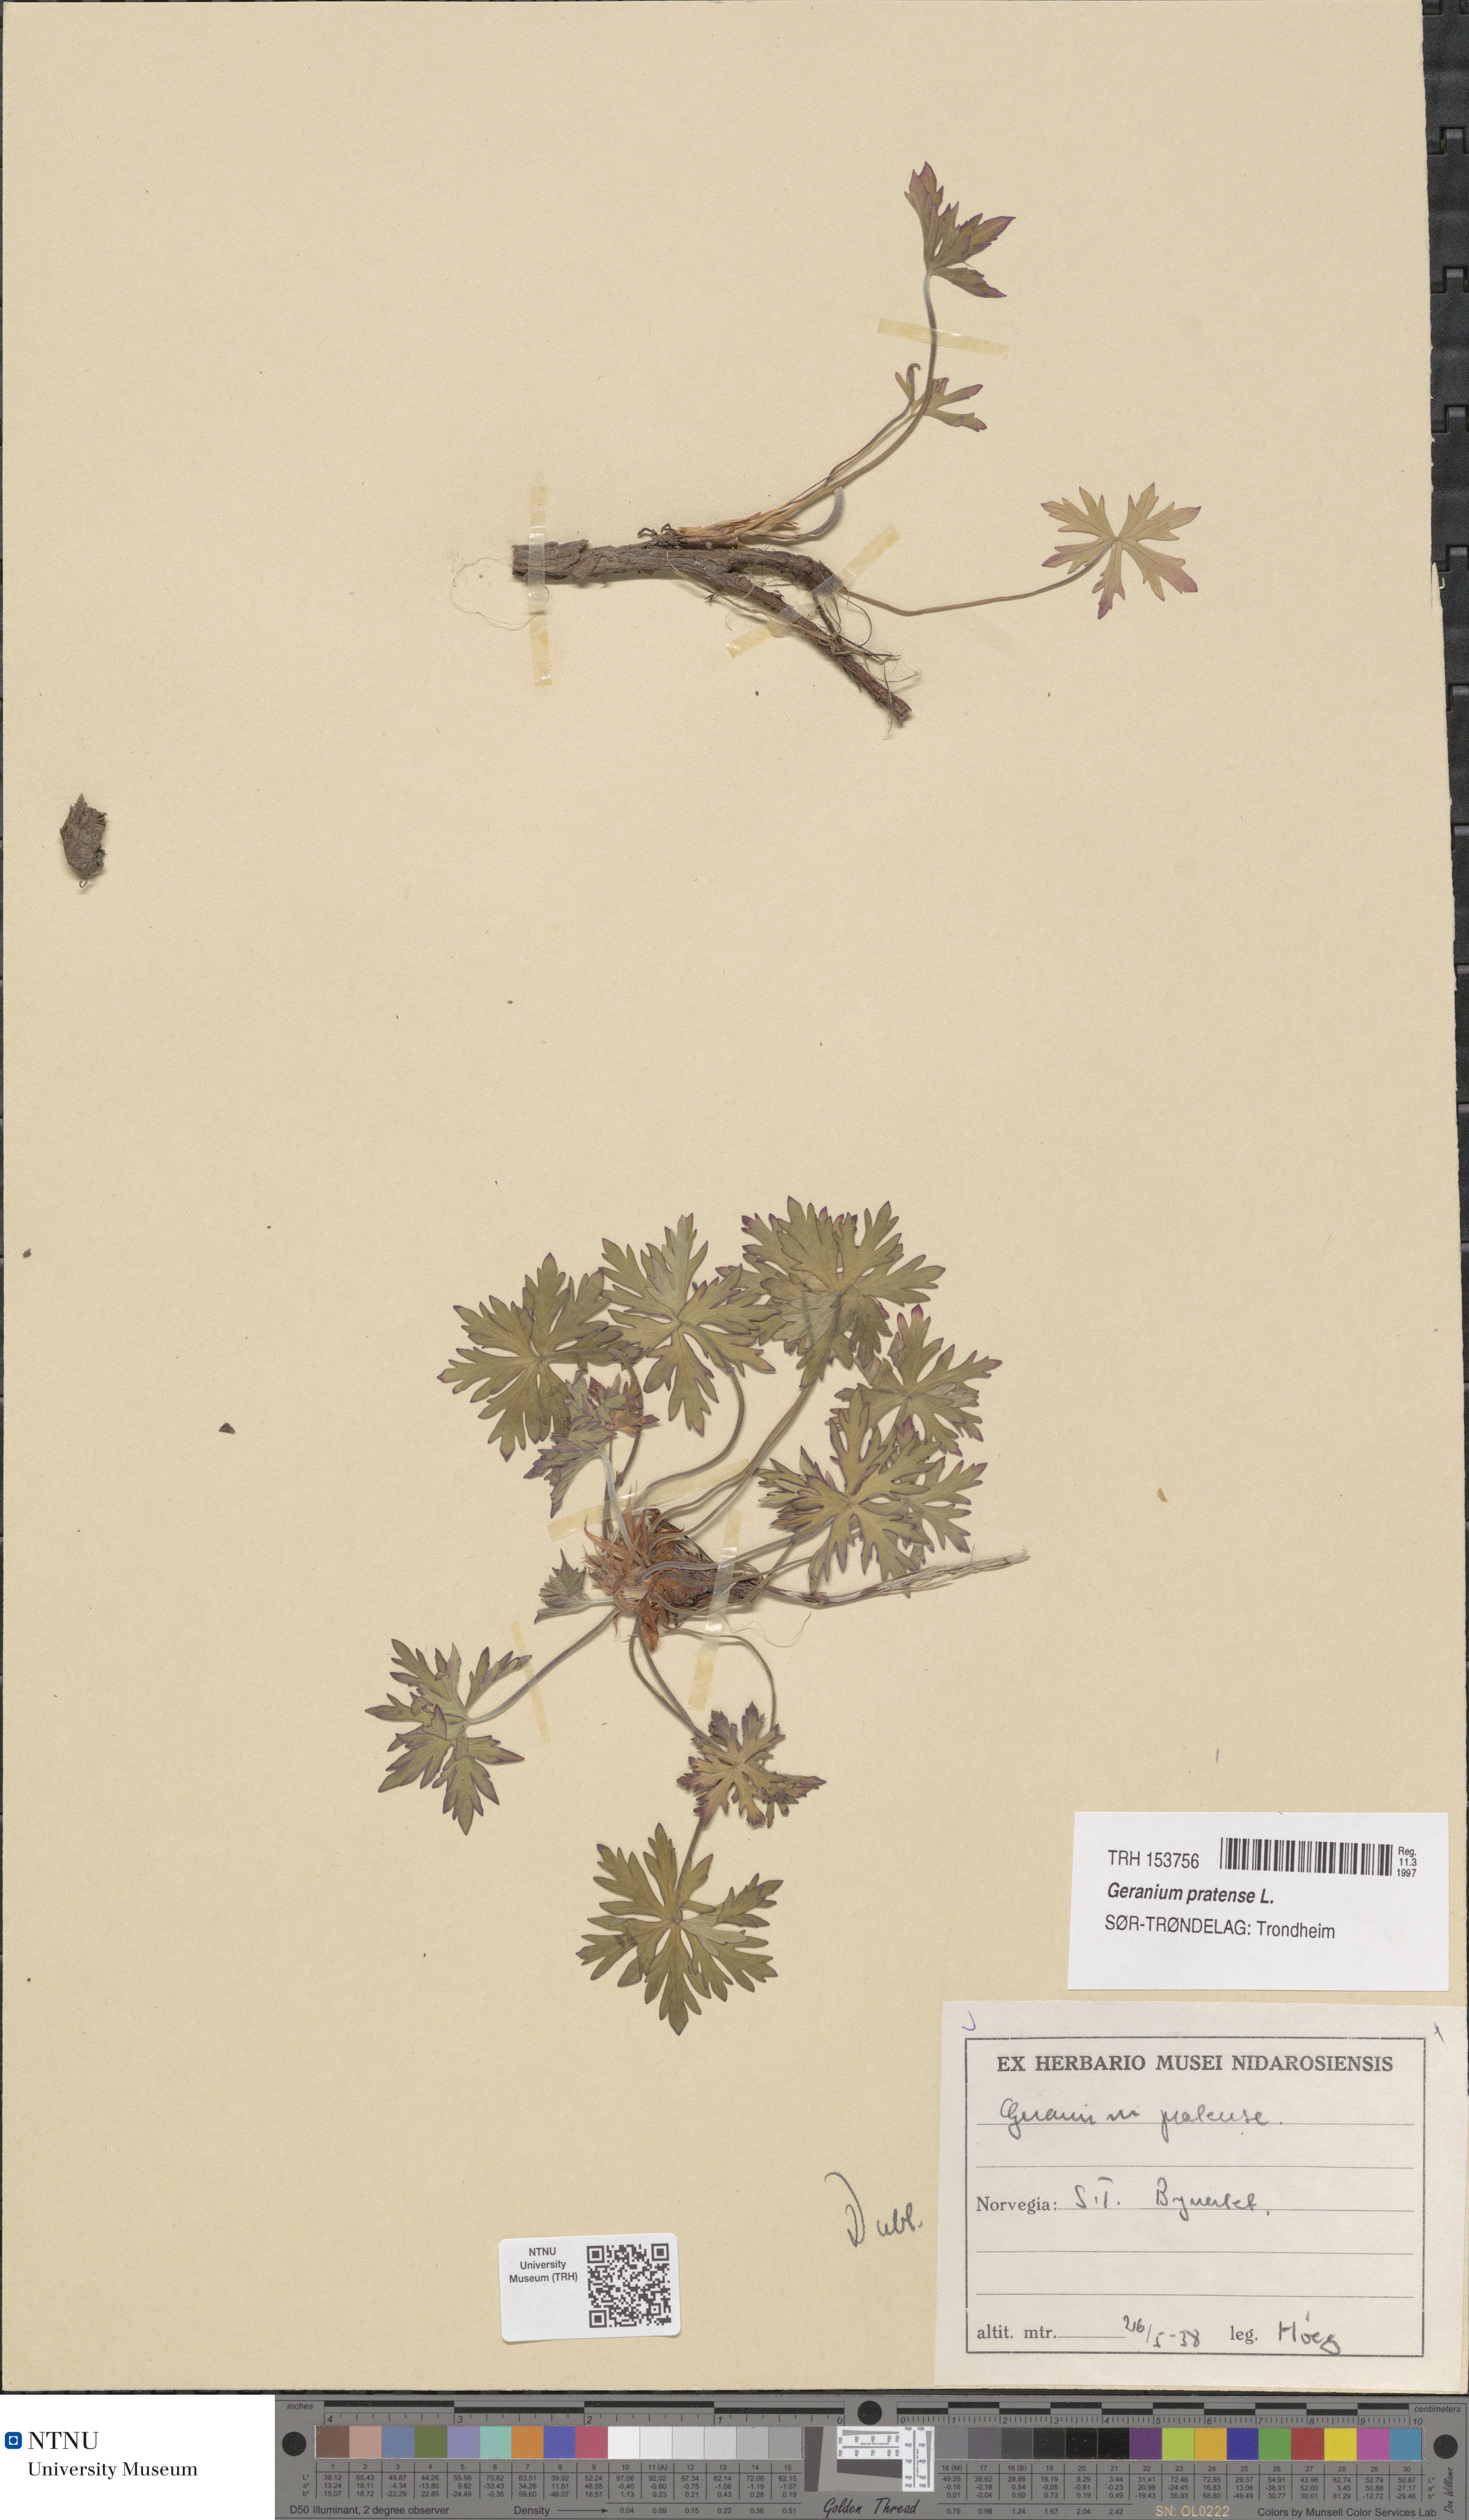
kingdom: Plantae
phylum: Tracheophyta
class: Magnoliopsida
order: Geraniales
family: Geraniaceae
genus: Geranium
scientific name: Geranium pratense
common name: Meadow crane's-bill
